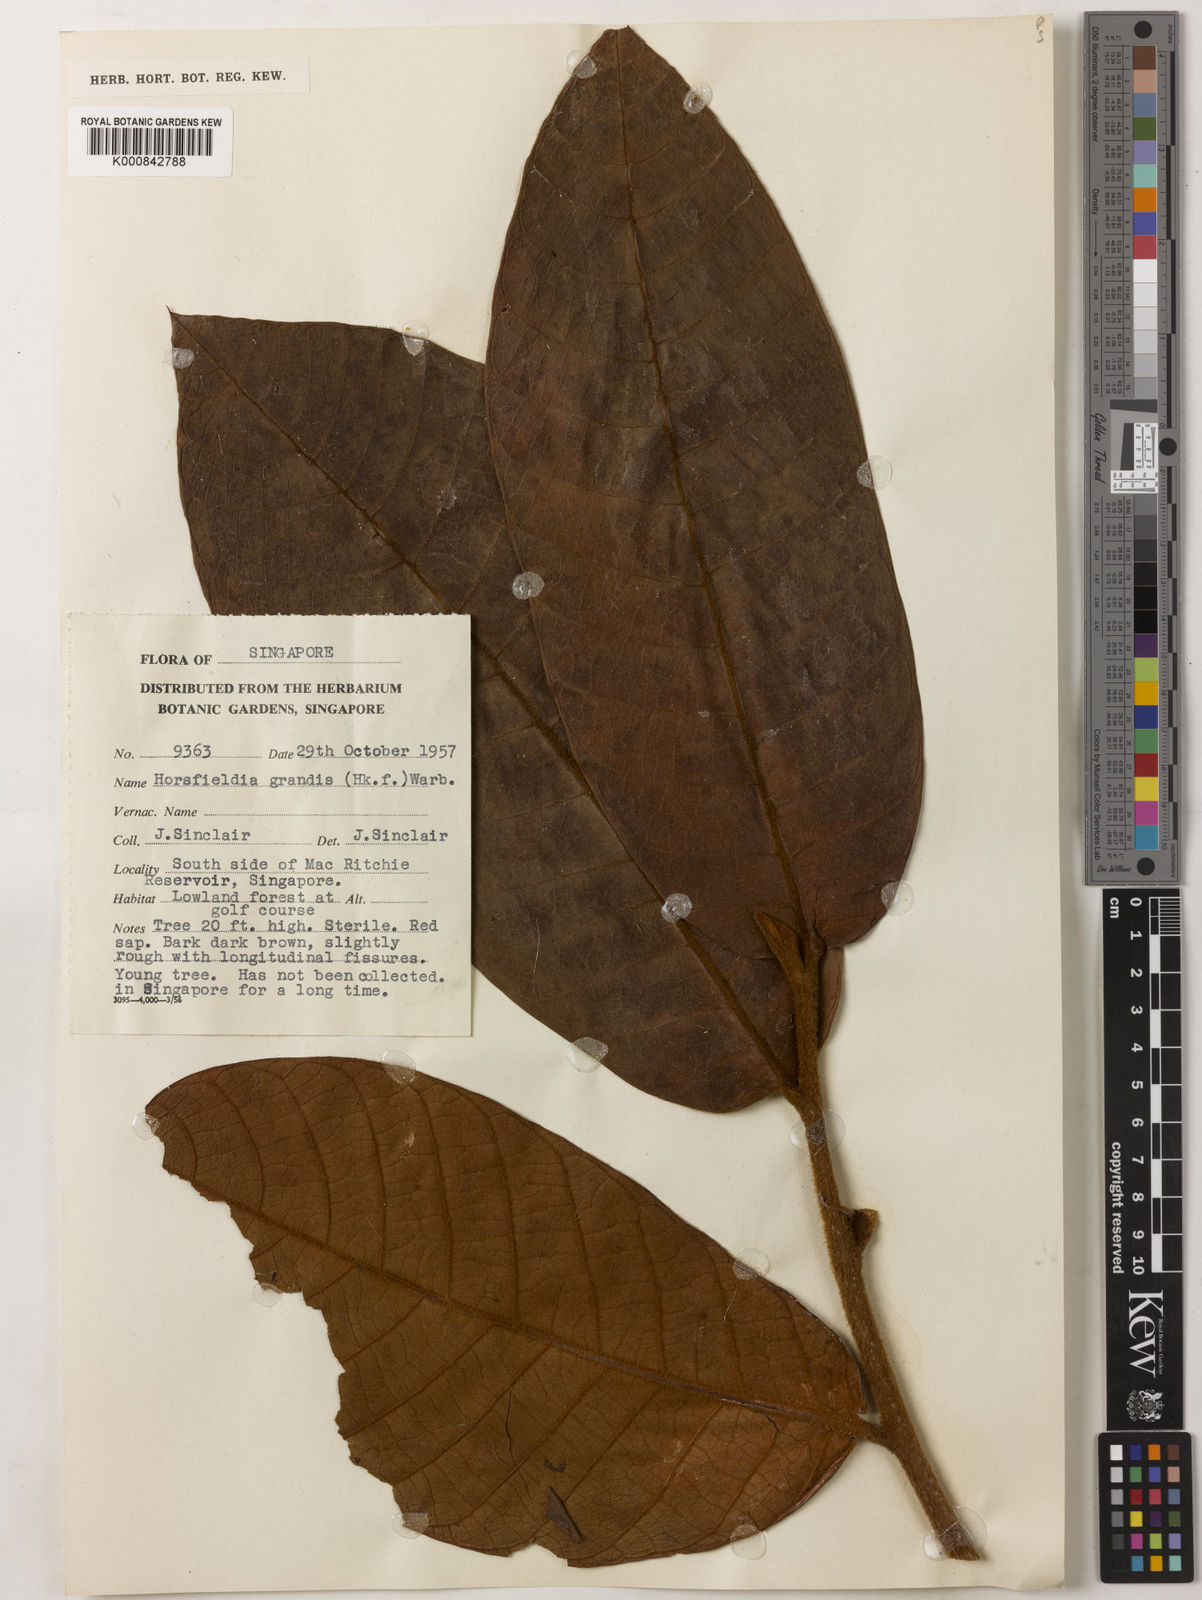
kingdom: Plantae
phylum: Tracheophyta
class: Magnoliopsida
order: Magnoliales
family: Myristicaceae
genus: Horsfieldia
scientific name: Horsfieldia grandis
